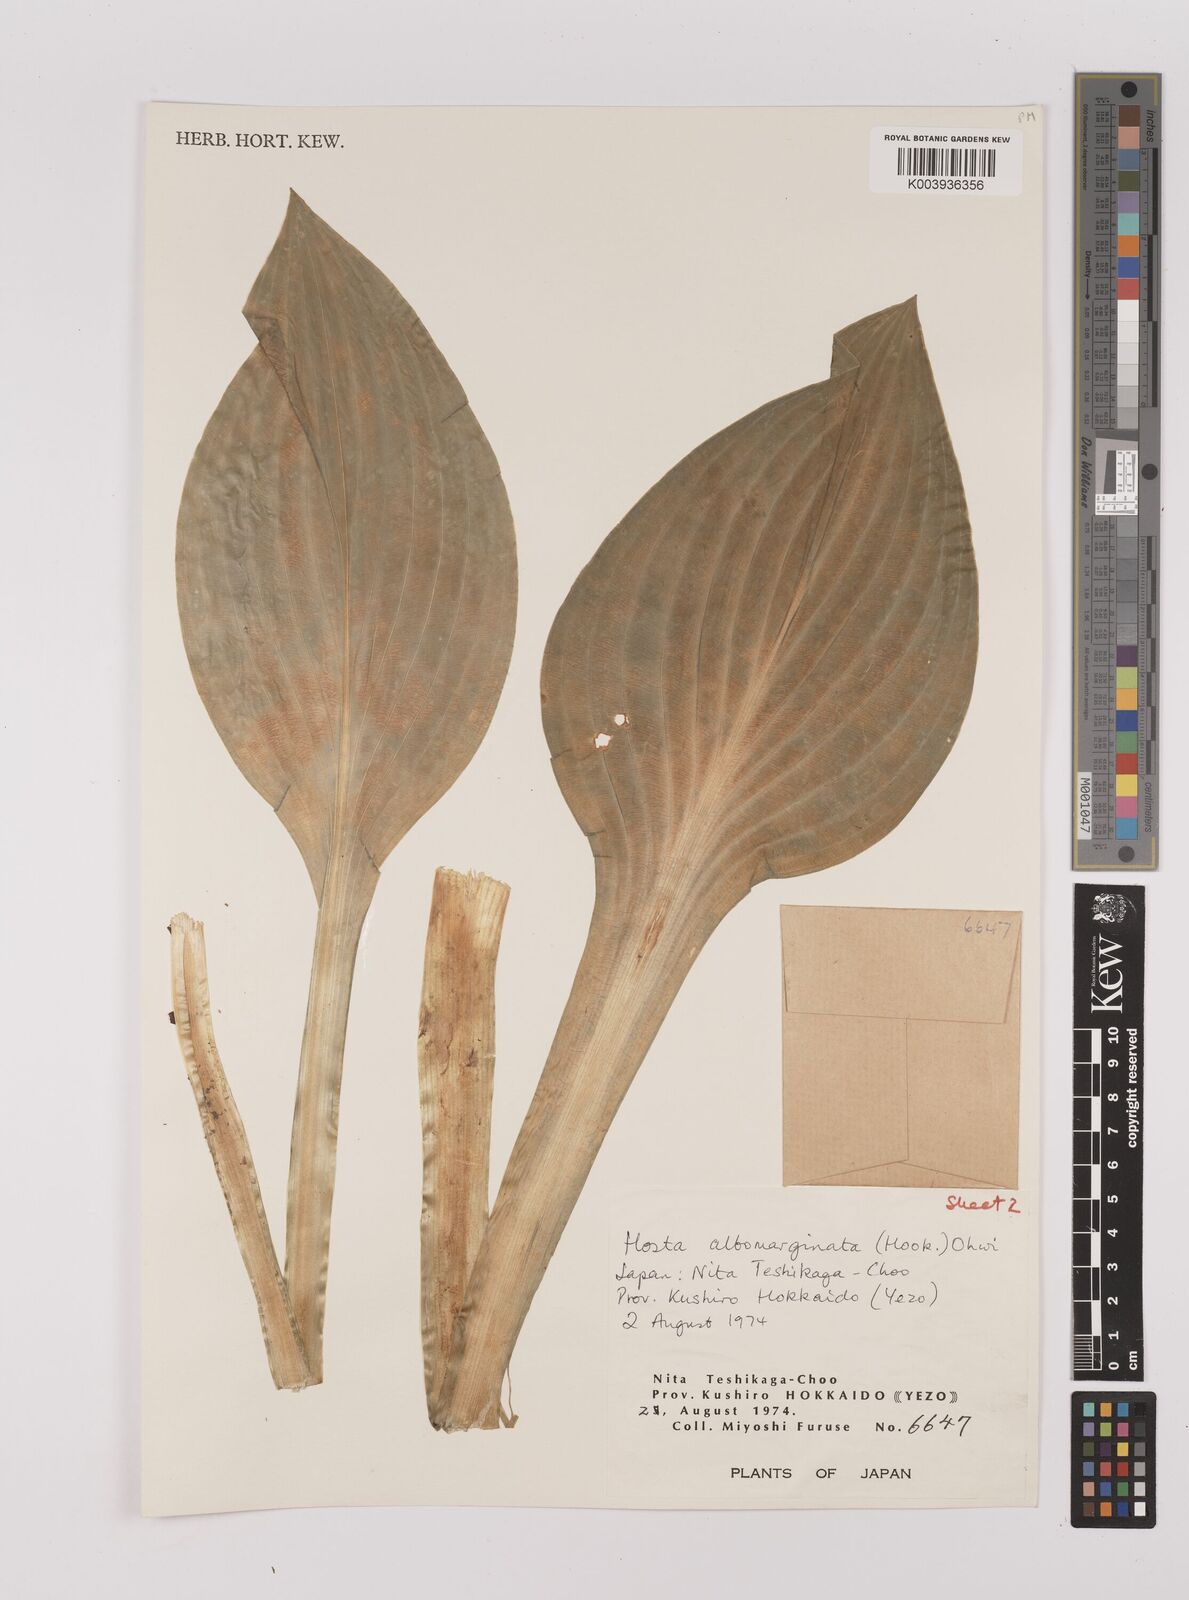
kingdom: Plantae
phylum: Tracheophyta
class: Liliopsida
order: Asparagales
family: Asparagaceae
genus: Hosta
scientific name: Hosta sieboldii
